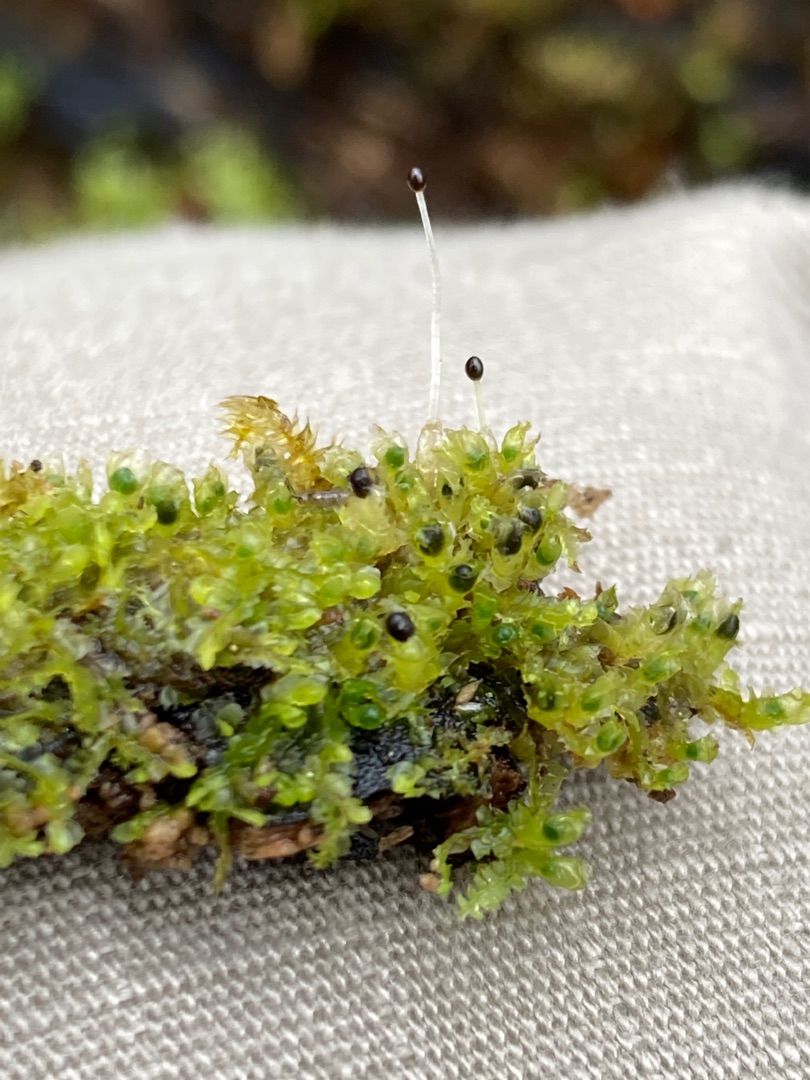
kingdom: Plantae
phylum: Marchantiophyta
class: Jungermanniopsida
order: Jungermanniales
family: Lophocoleaceae
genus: Lophocolea
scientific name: Lophocolea heterophylla
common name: Forskelligbladet kamsvøb
